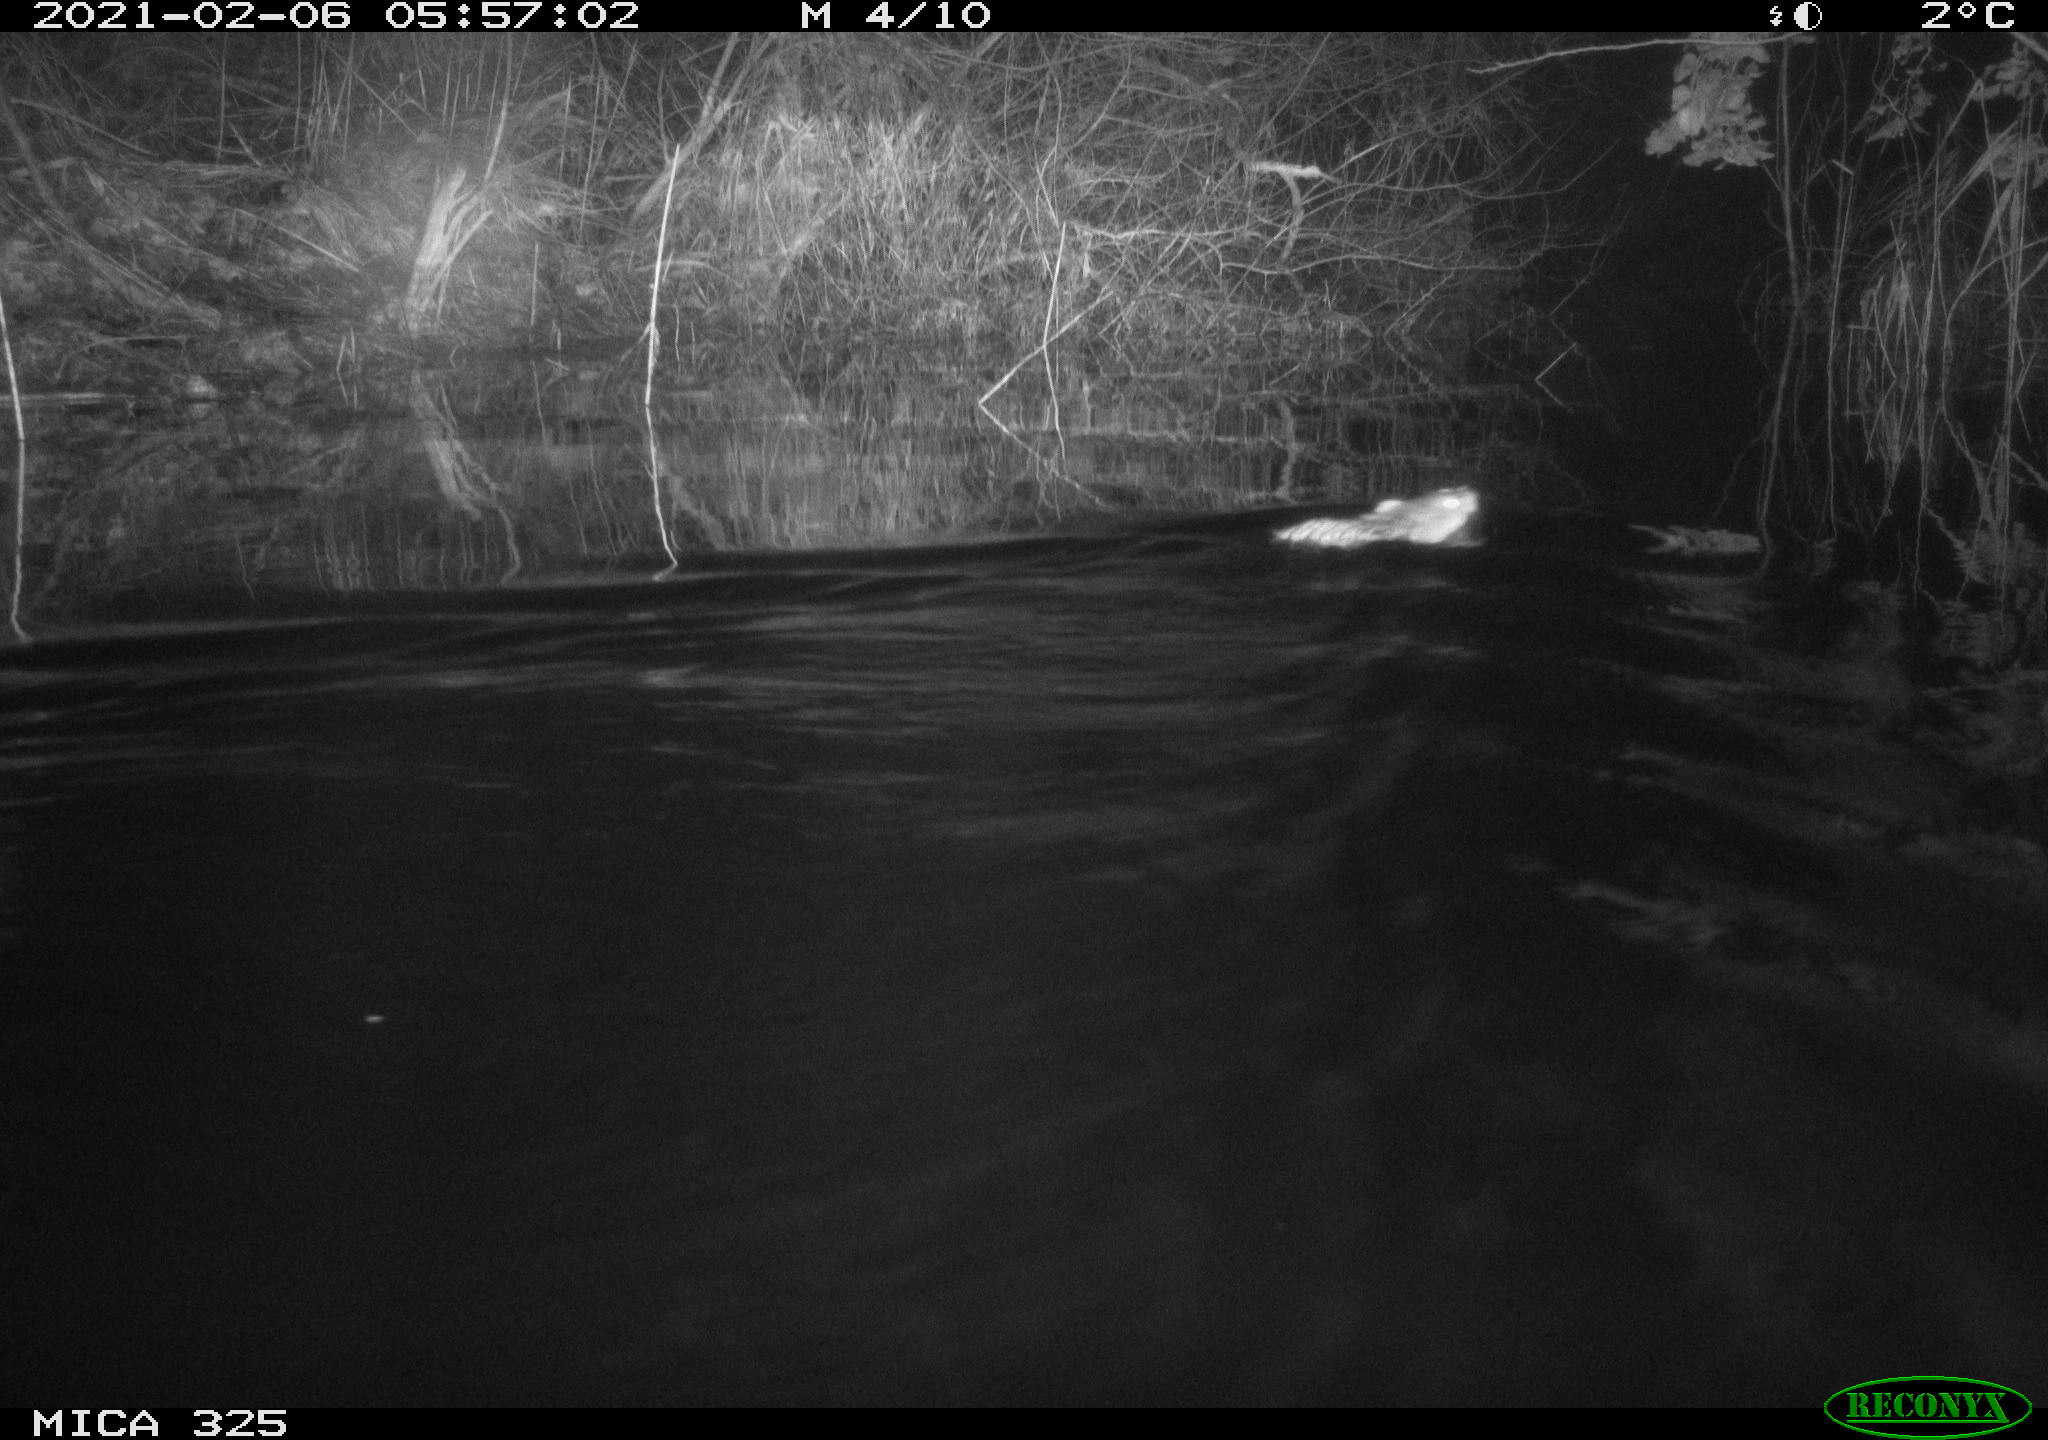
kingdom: Animalia
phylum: Chordata
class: Mammalia
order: Rodentia
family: Cricetidae
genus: Ondatra
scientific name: Ondatra zibethicus
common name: Muskrat
